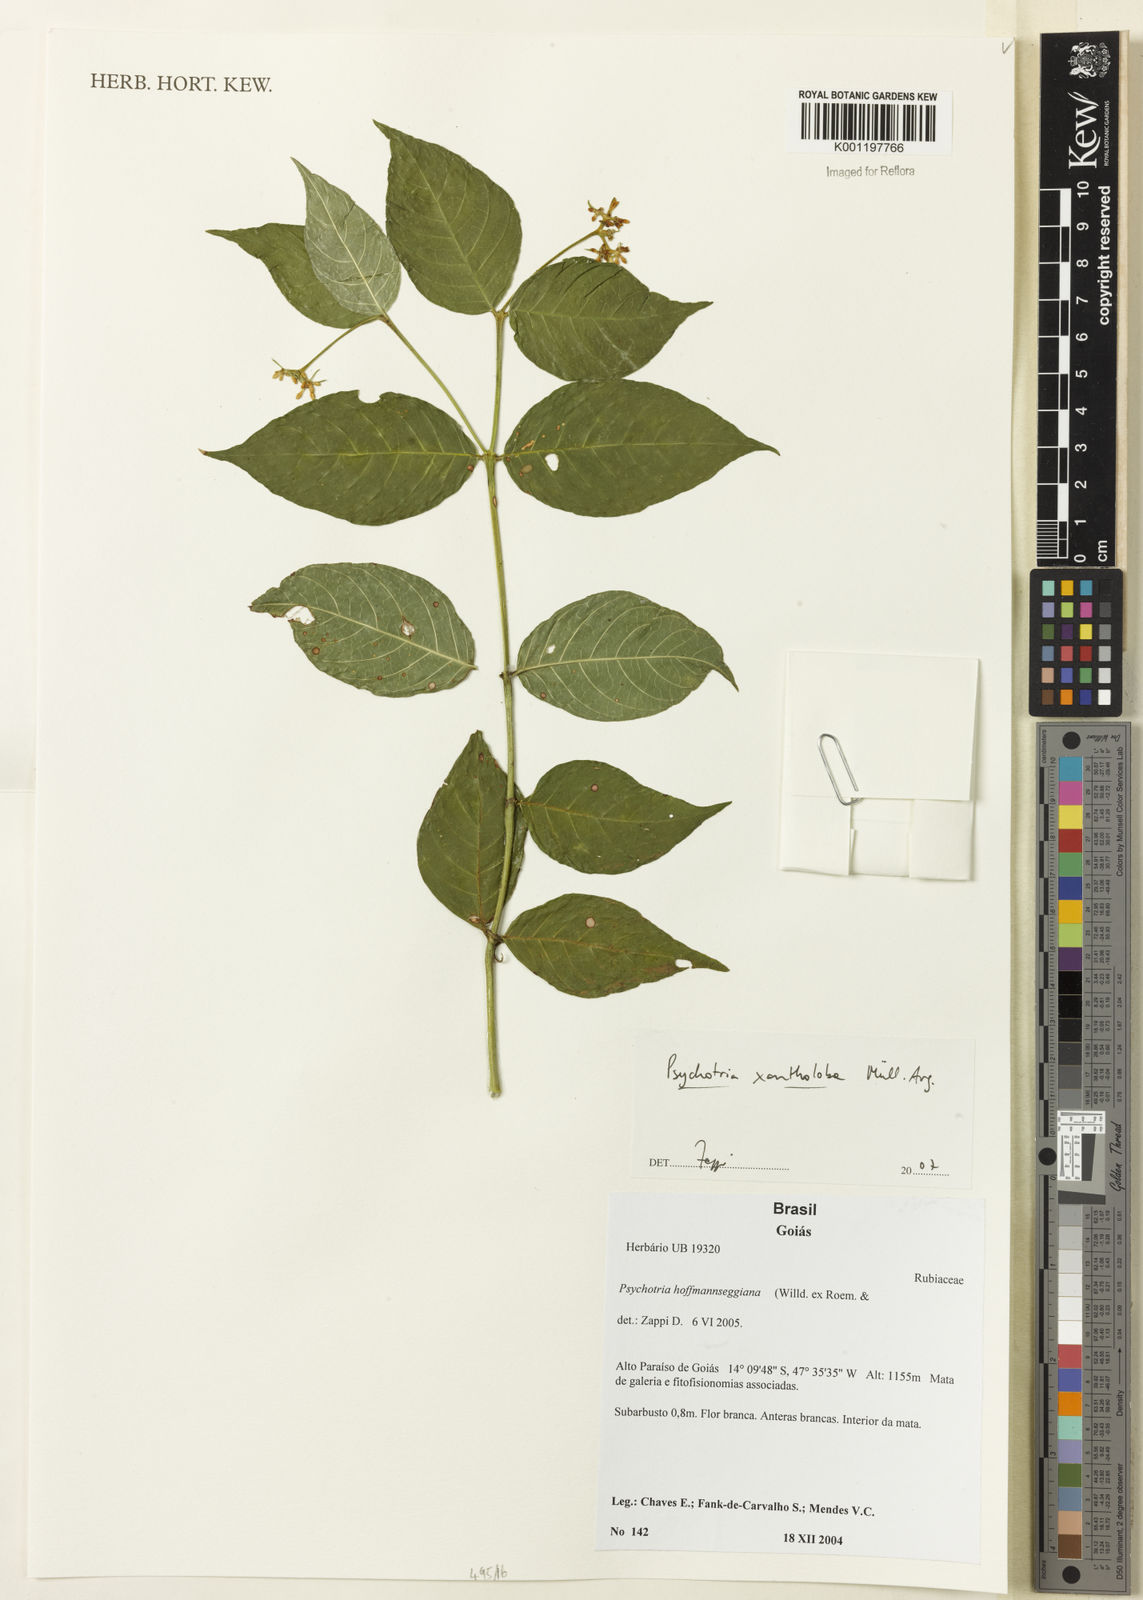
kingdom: Plantae
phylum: Tracheophyta
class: Magnoliopsida
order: Gentianales
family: Rubiaceae
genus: Psychotria
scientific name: Psychotria
